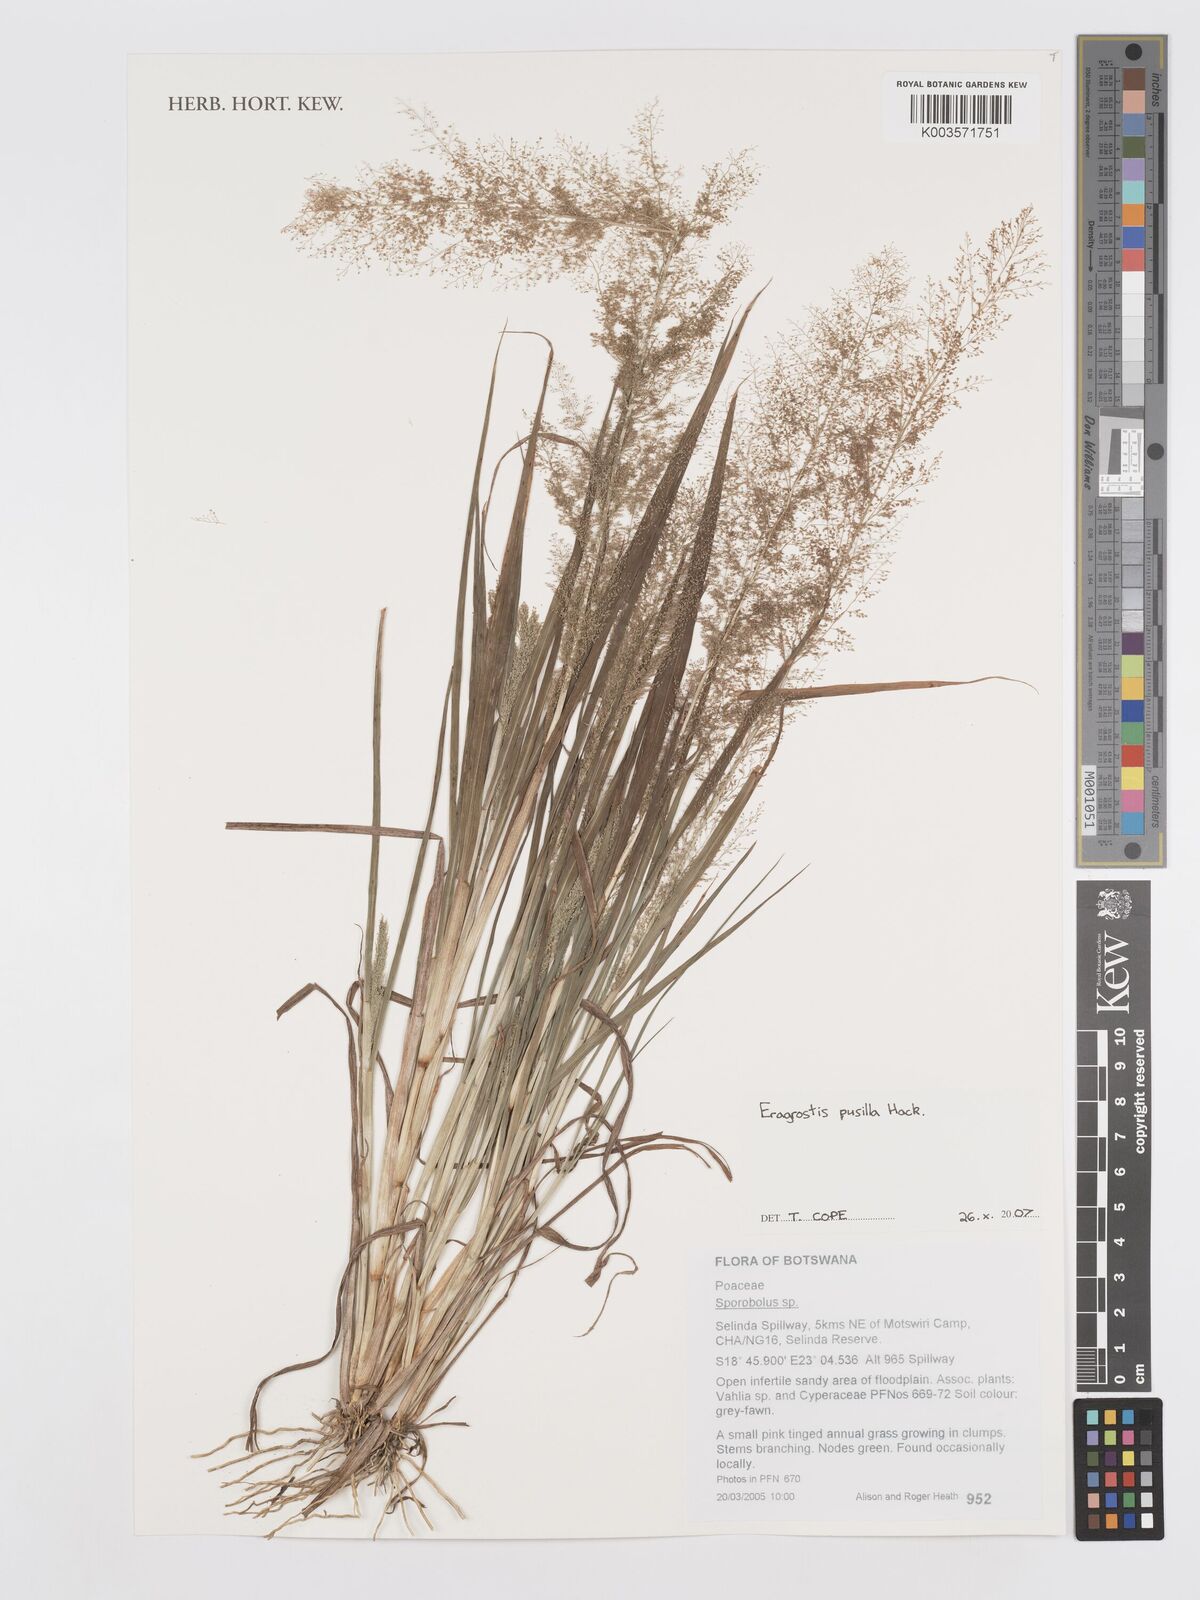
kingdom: Plantae
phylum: Tracheophyta
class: Liliopsida
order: Poales
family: Poaceae
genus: Eragrostis
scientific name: Eragrostis pusilla
